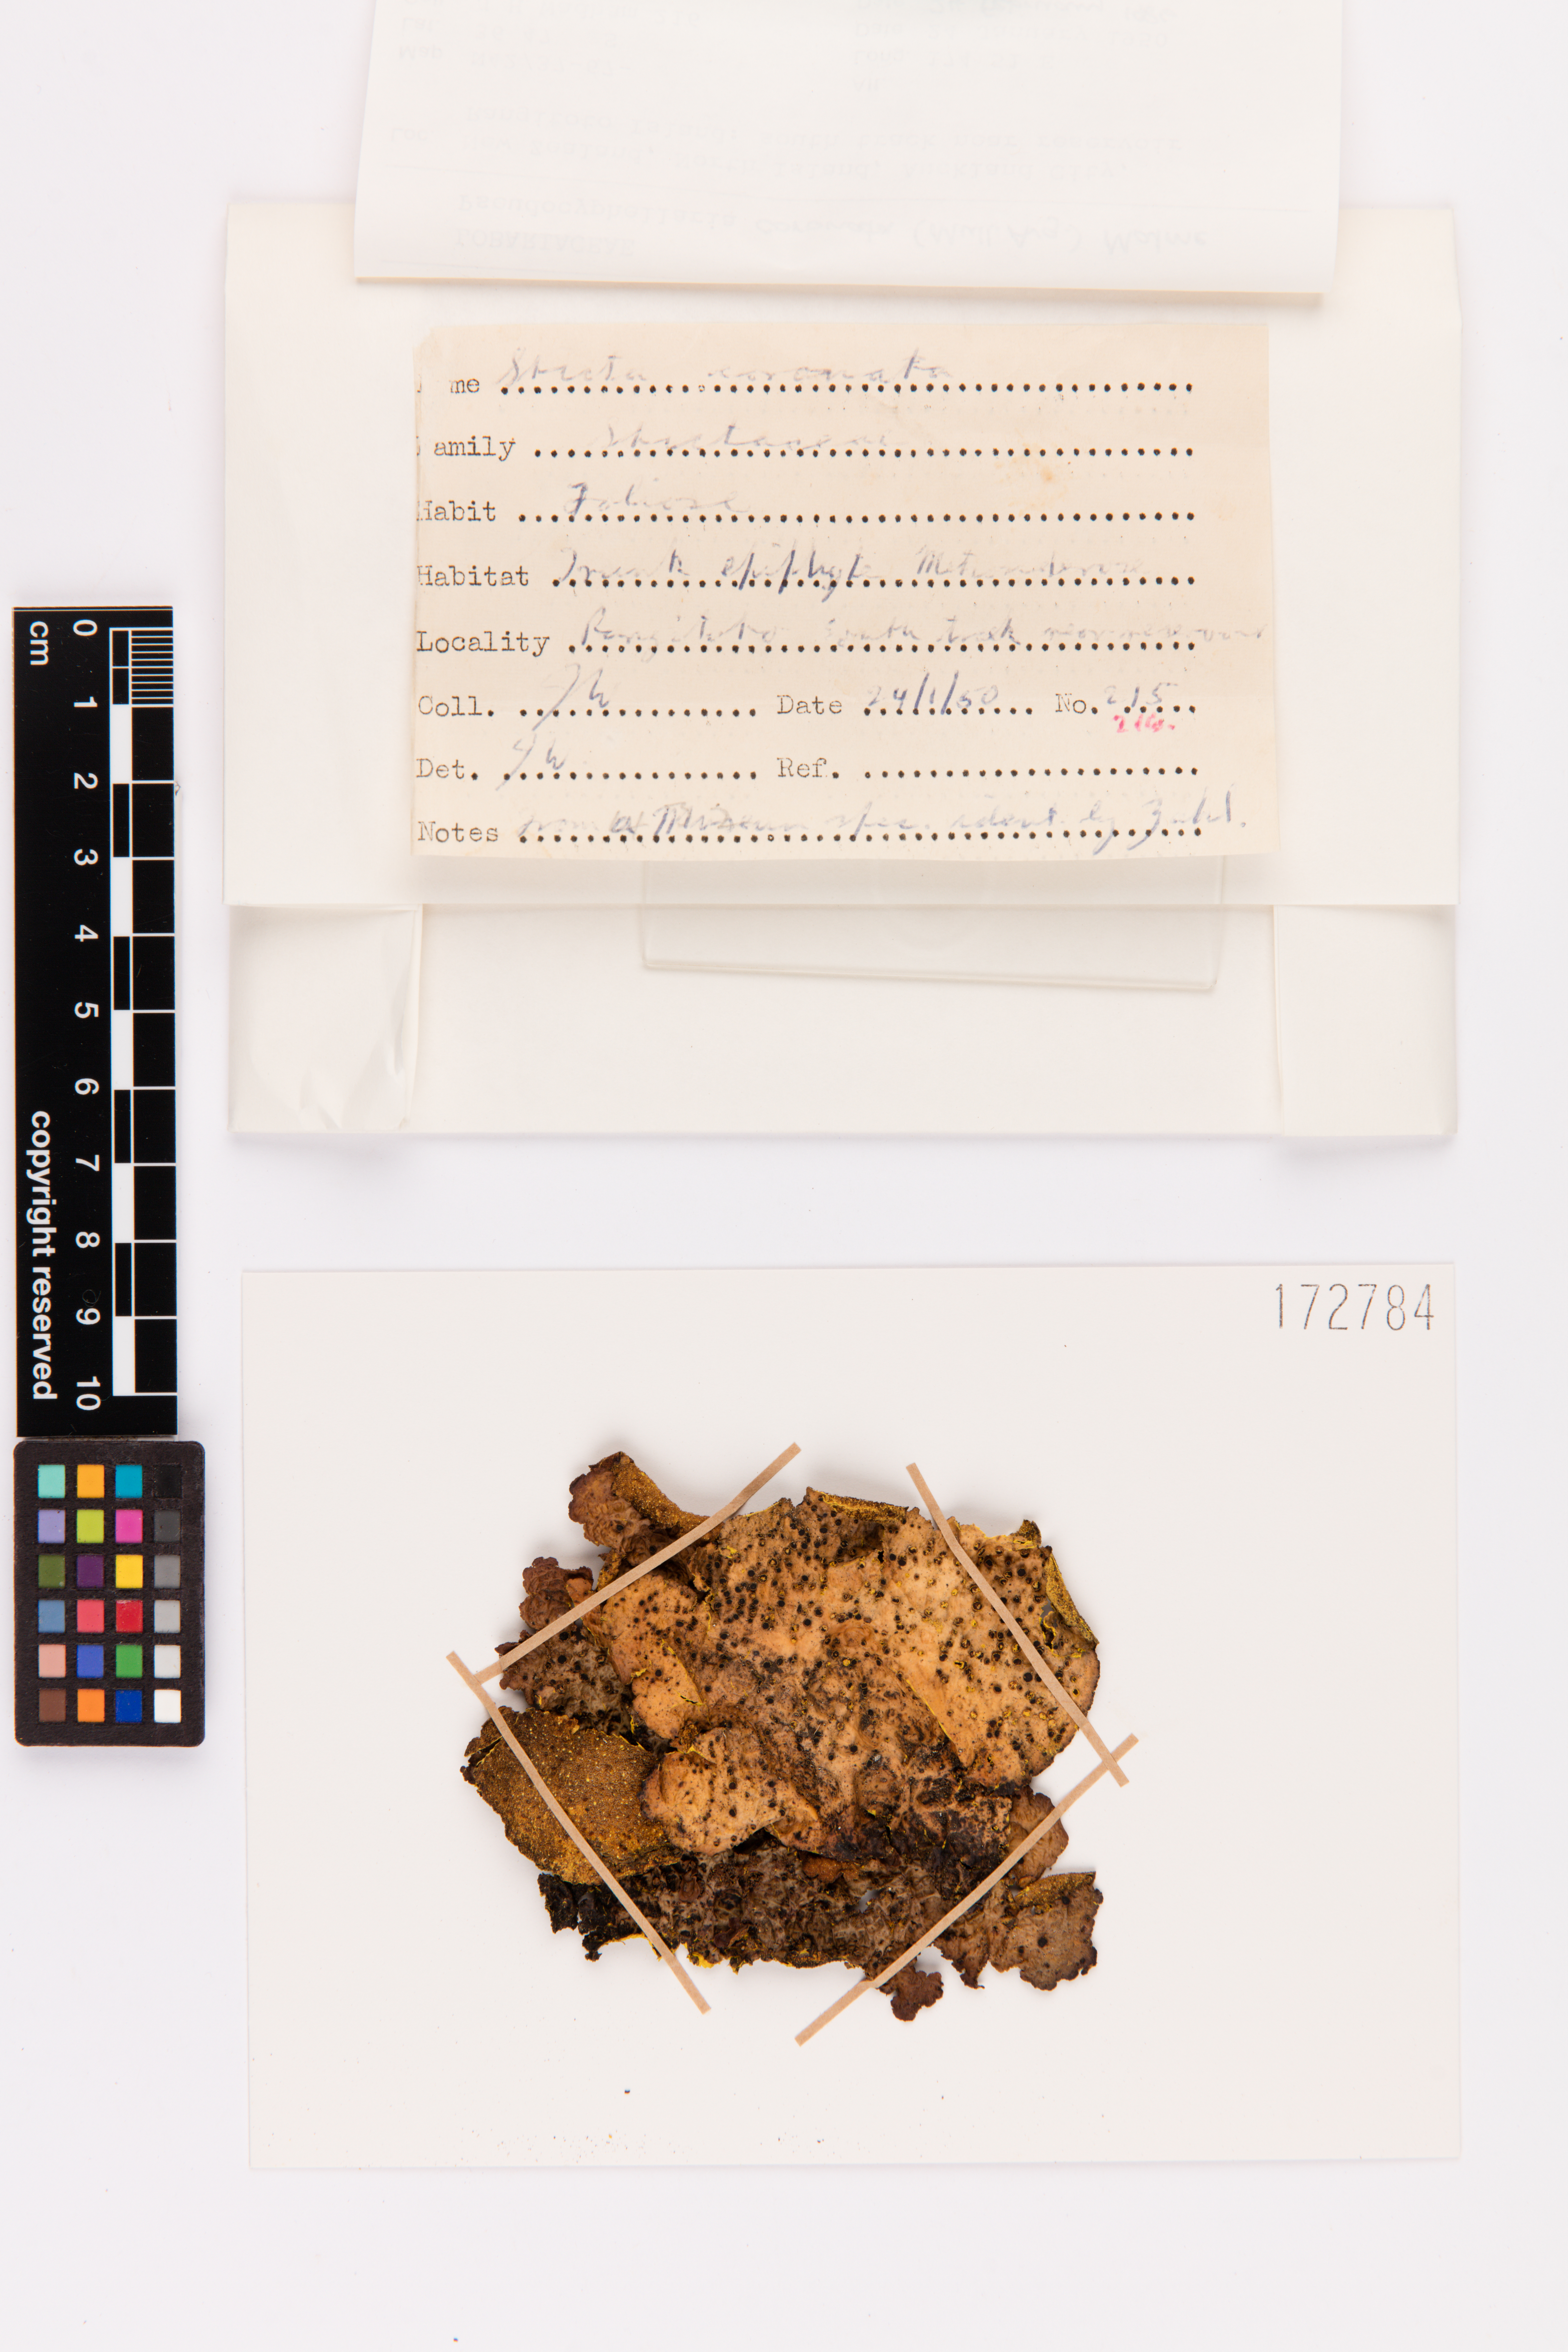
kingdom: Fungi
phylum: Ascomycota
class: Lecanoromycetes
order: Peltigerales
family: Lobariaceae
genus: Yarrumia
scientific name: Yarrumia coronata
